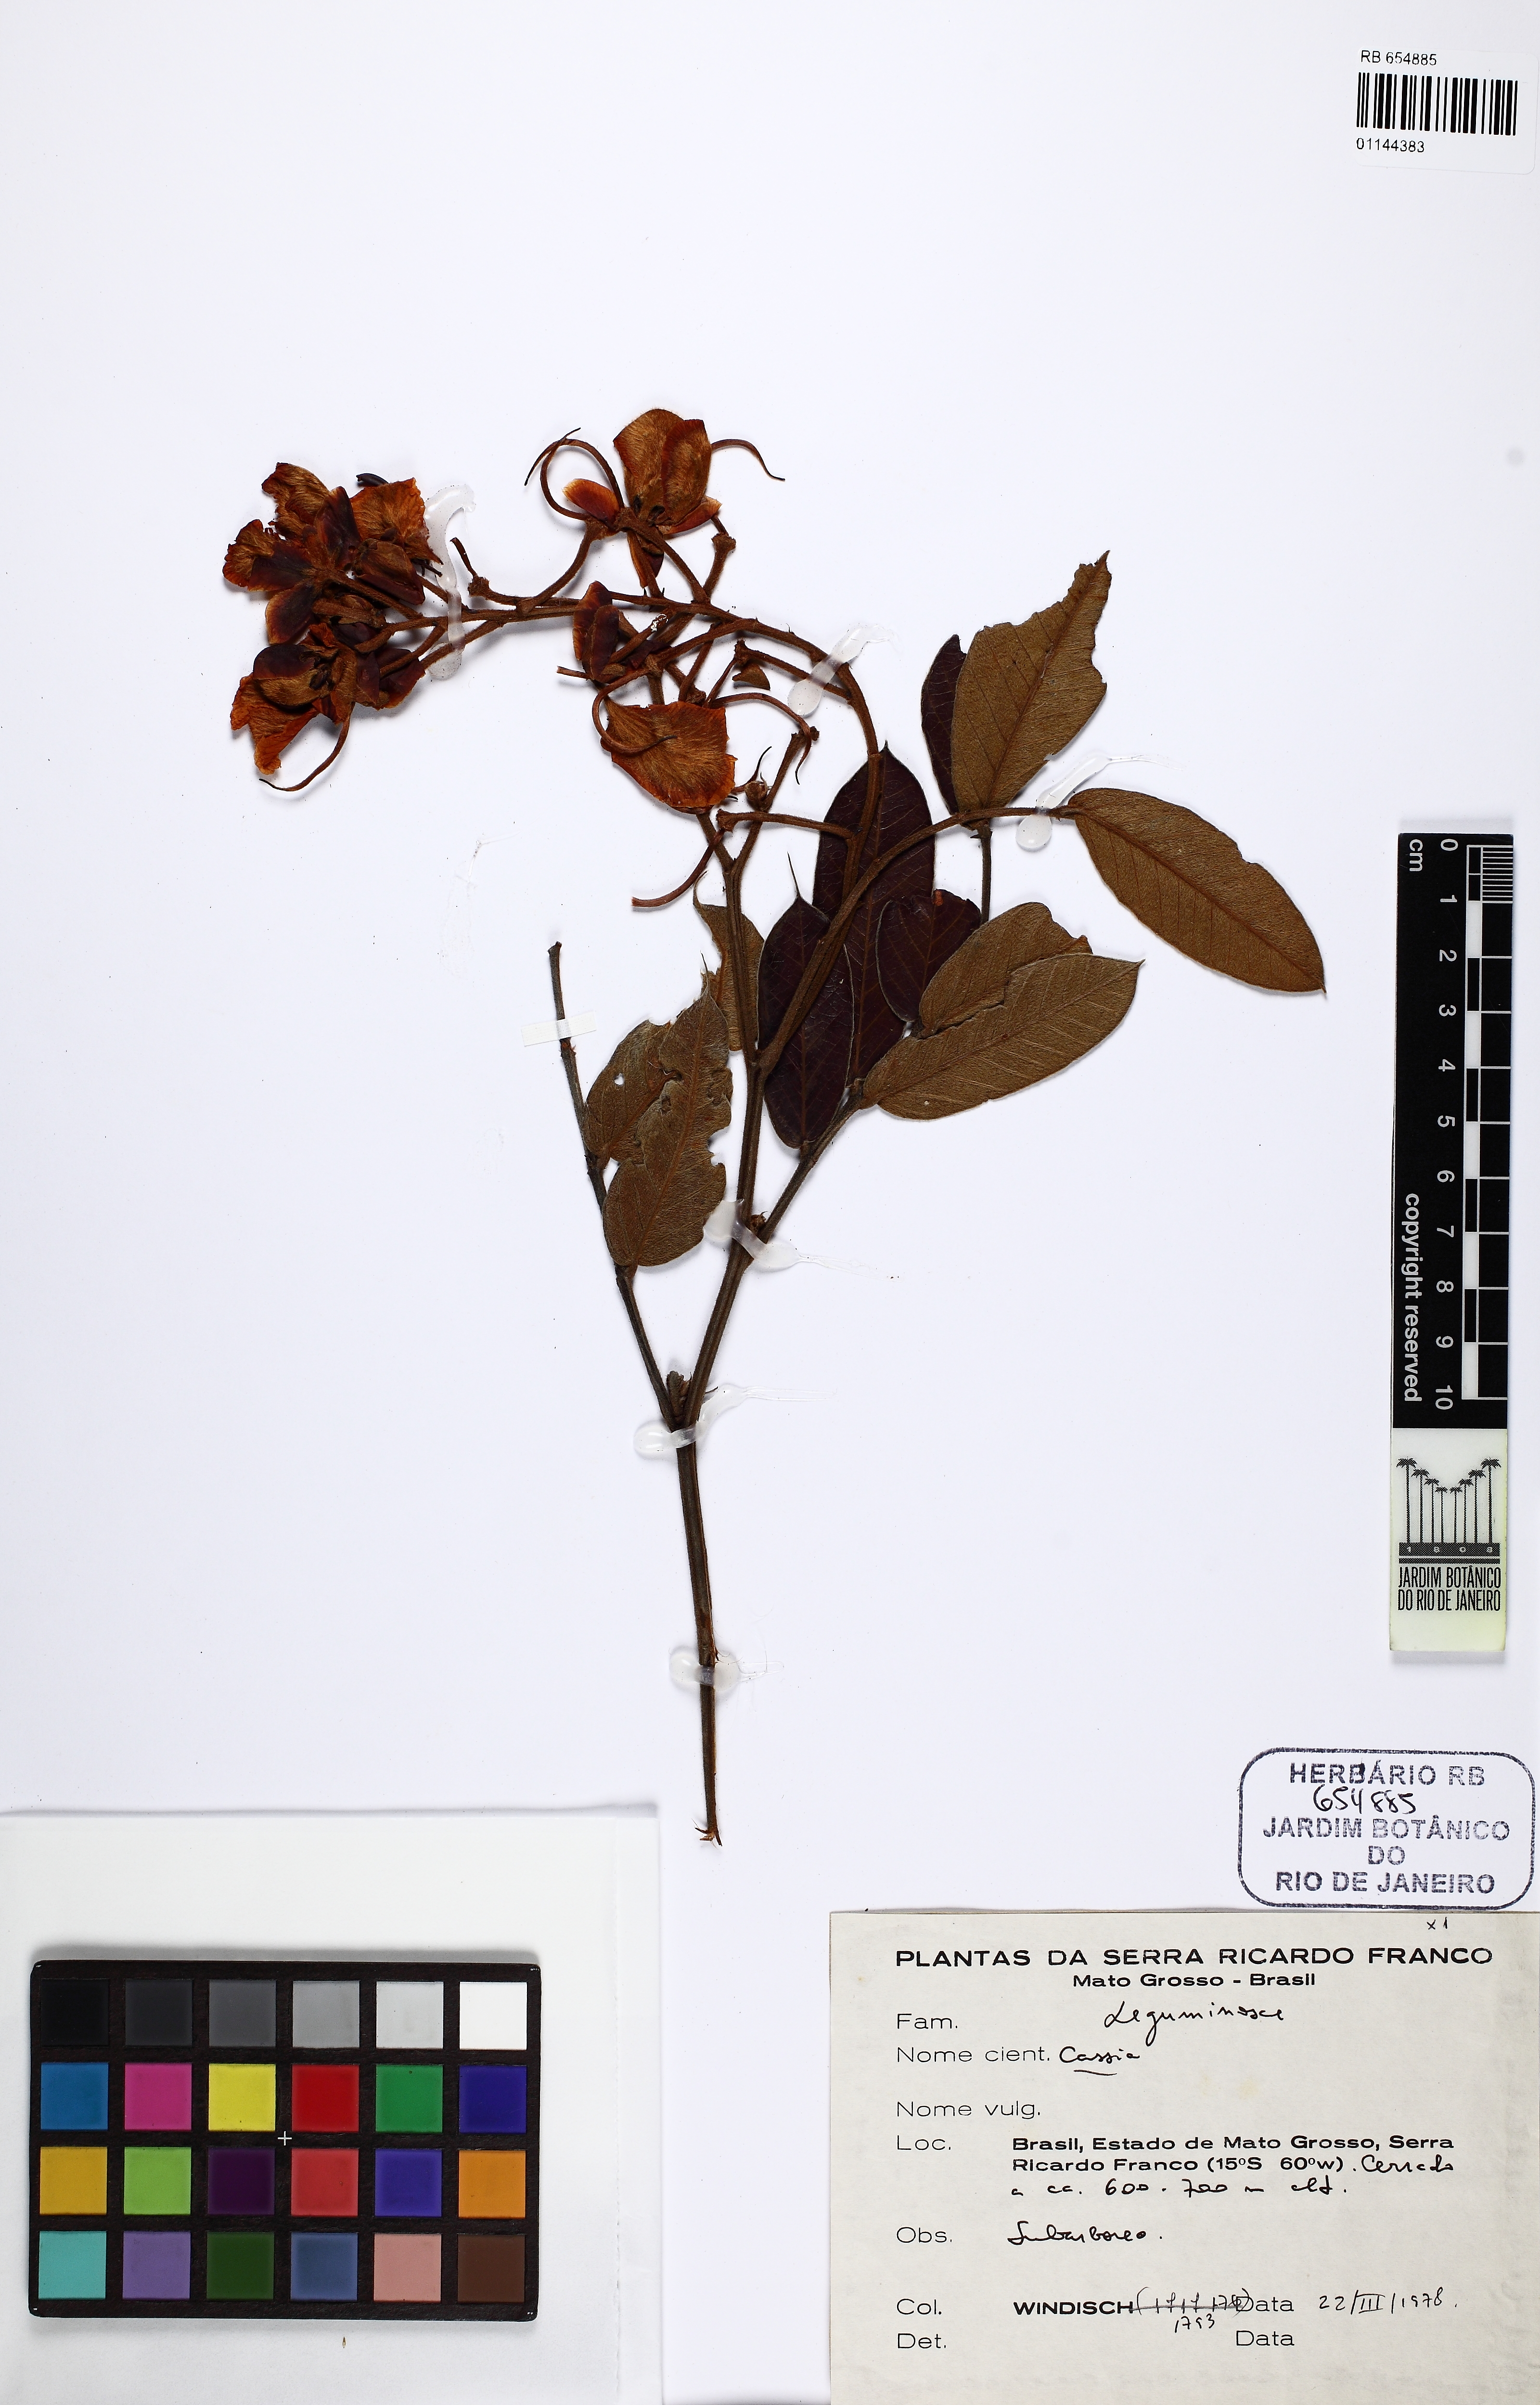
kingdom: Plantae
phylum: Tracheophyta
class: Magnoliopsida
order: Fabales
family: Fabaceae
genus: Senna
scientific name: Senna velutina
